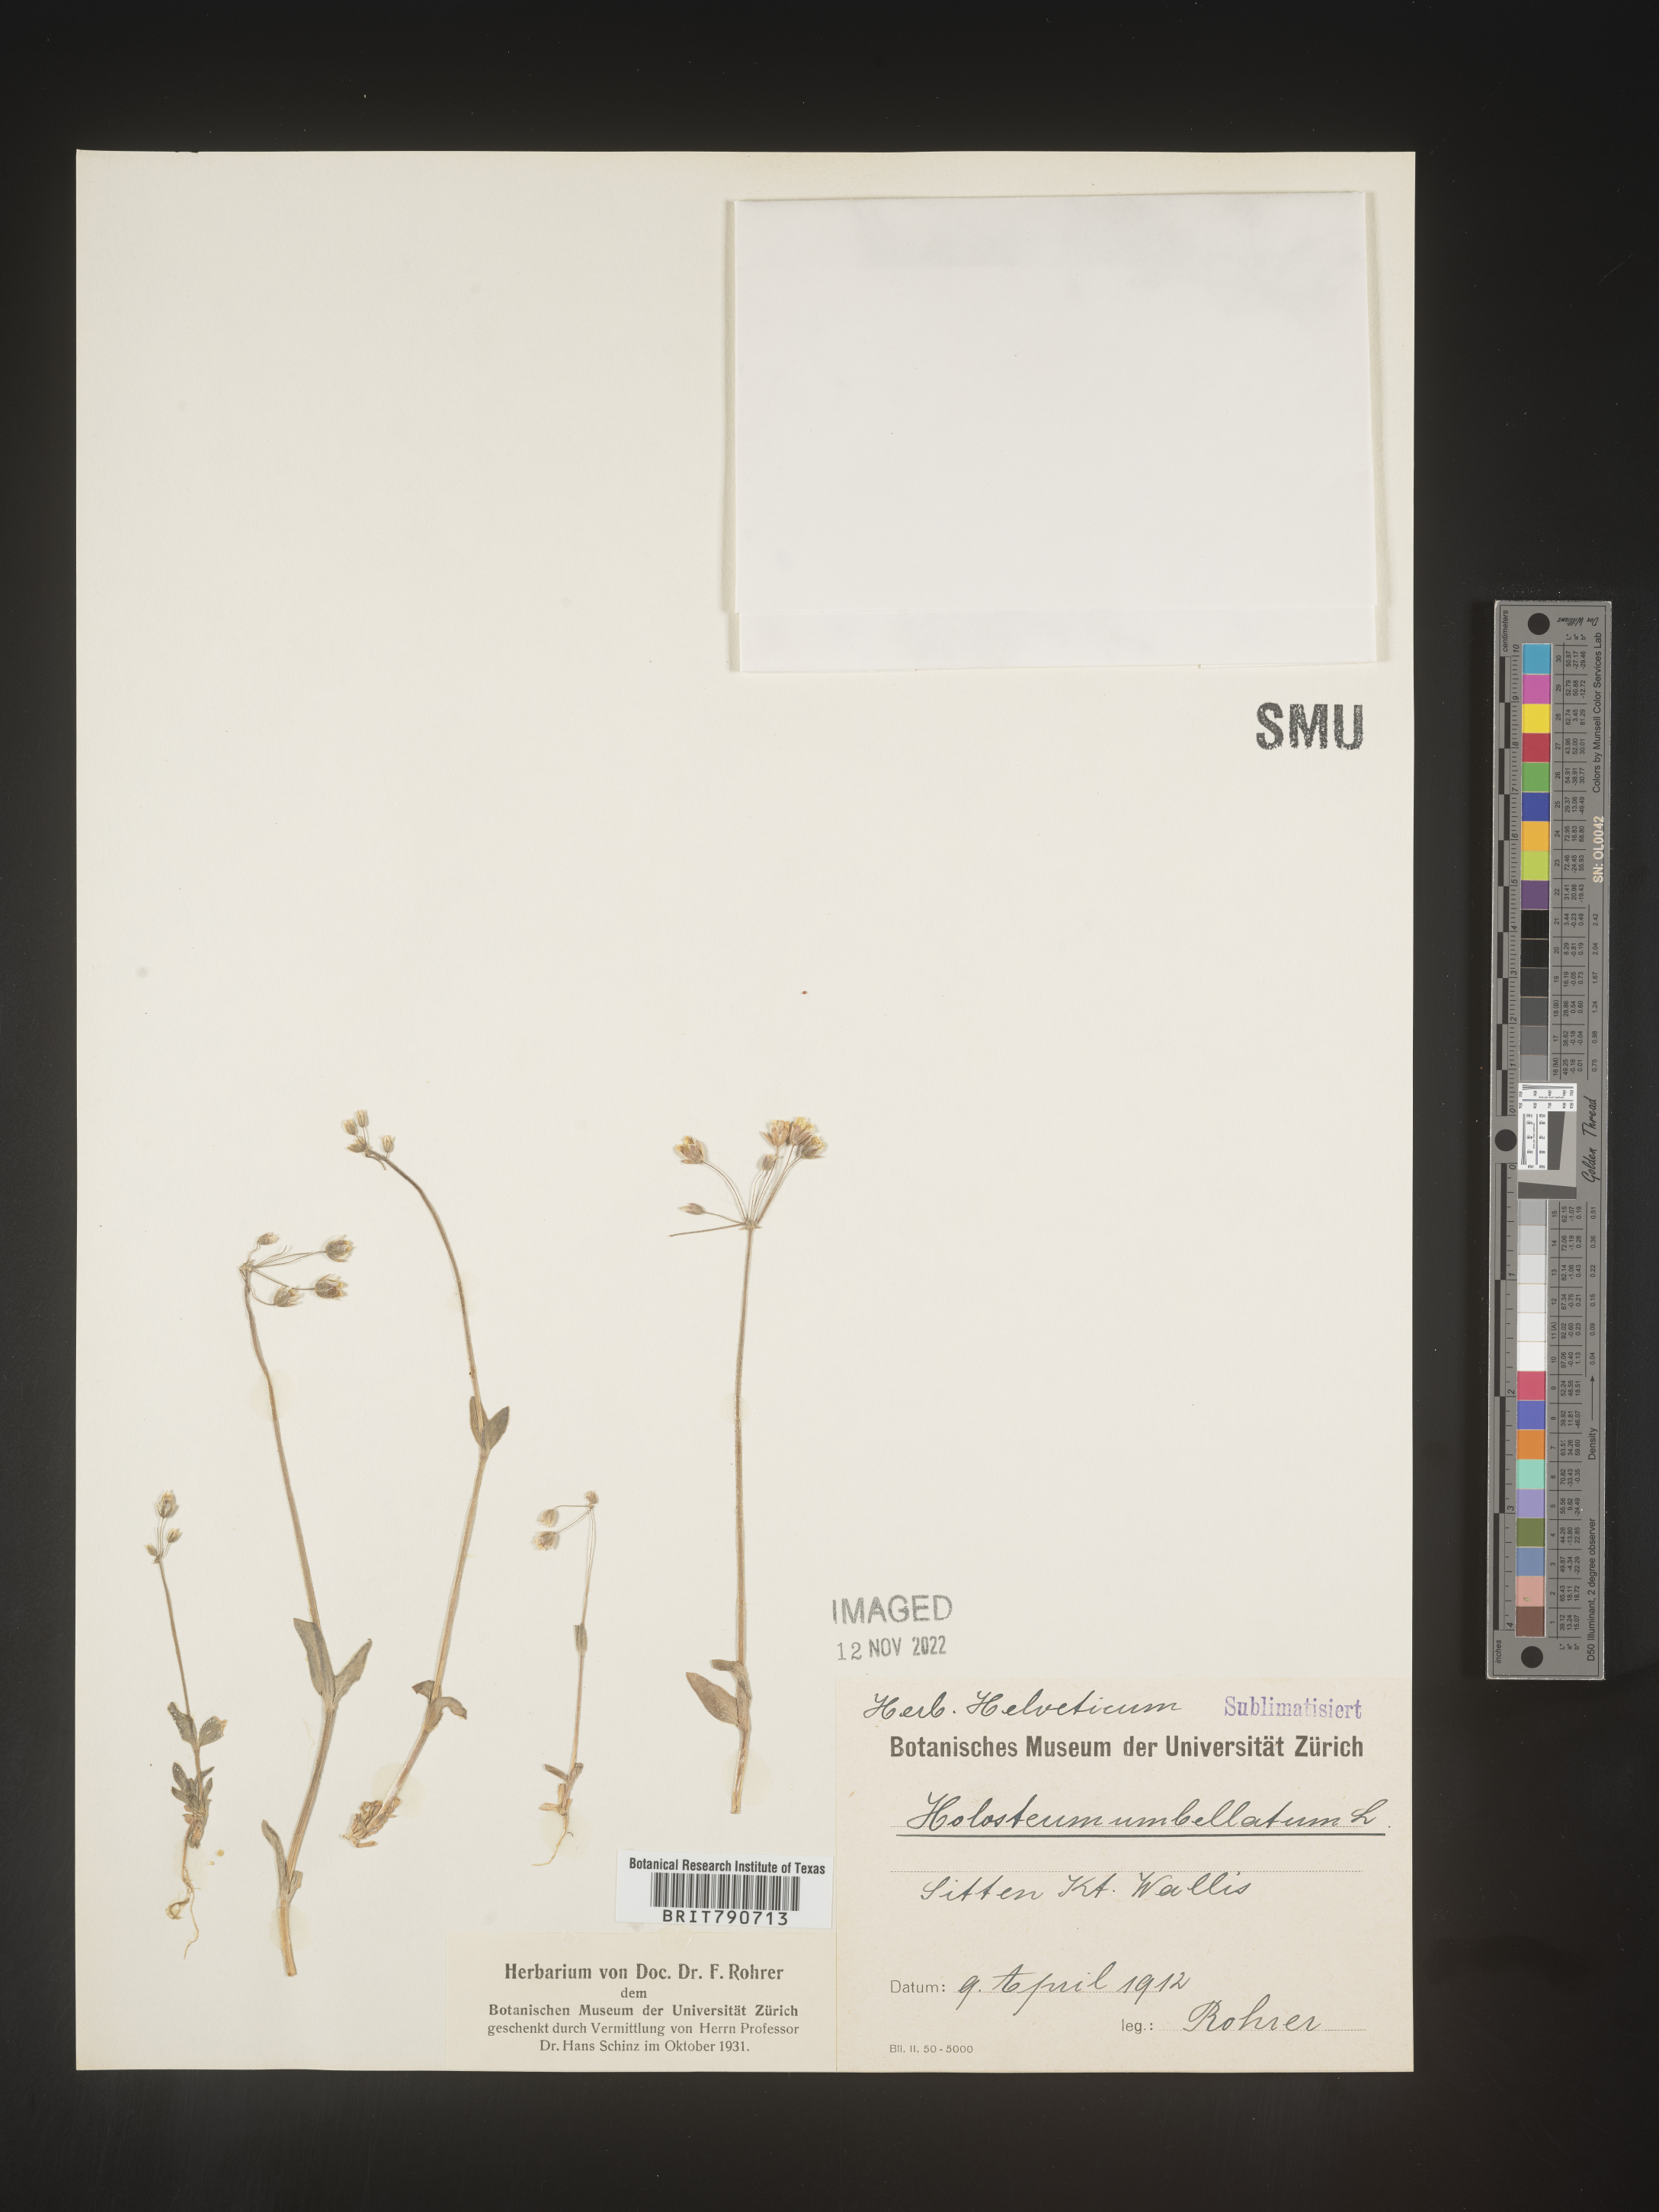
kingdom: Plantae
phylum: Tracheophyta
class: Magnoliopsida
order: Caryophyllales
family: Caryophyllaceae
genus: Holosteum
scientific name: Holosteum
